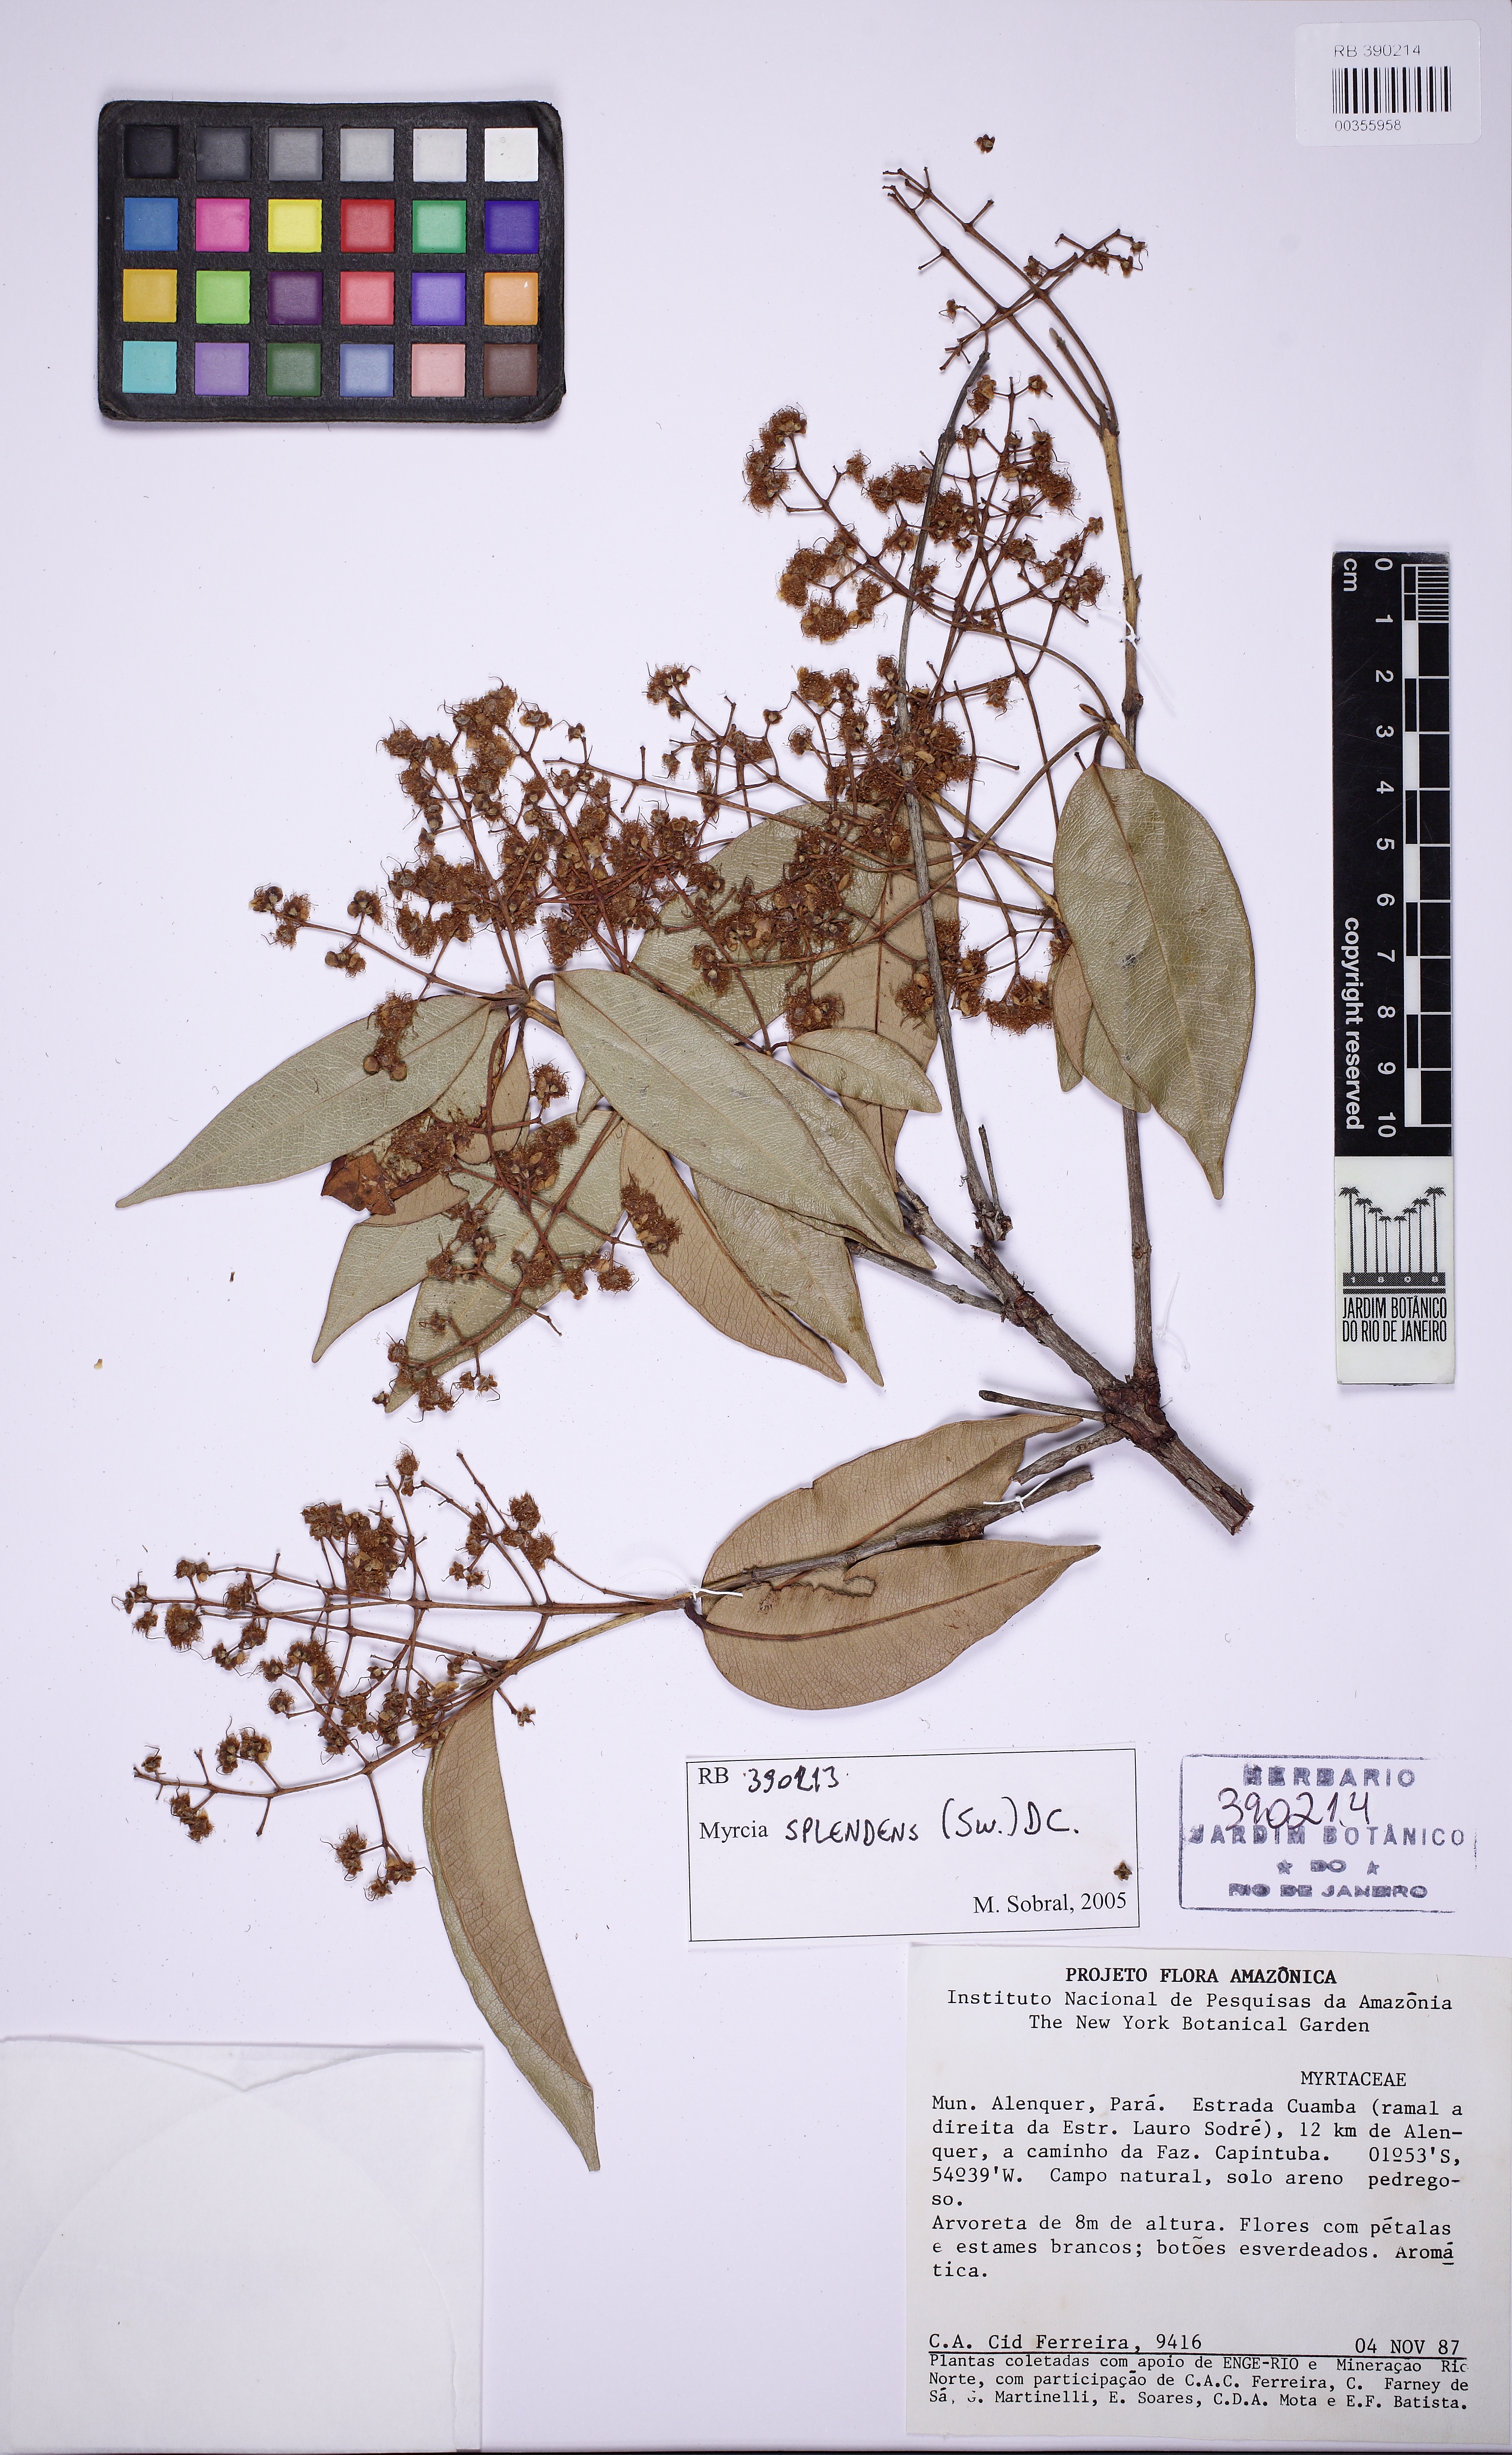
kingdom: Plantae
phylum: Tracheophyta
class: Magnoliopsida
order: Myrtales
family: Myrtaceae
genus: Myrcia
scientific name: Myrcia splendens
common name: Surinam cherry
